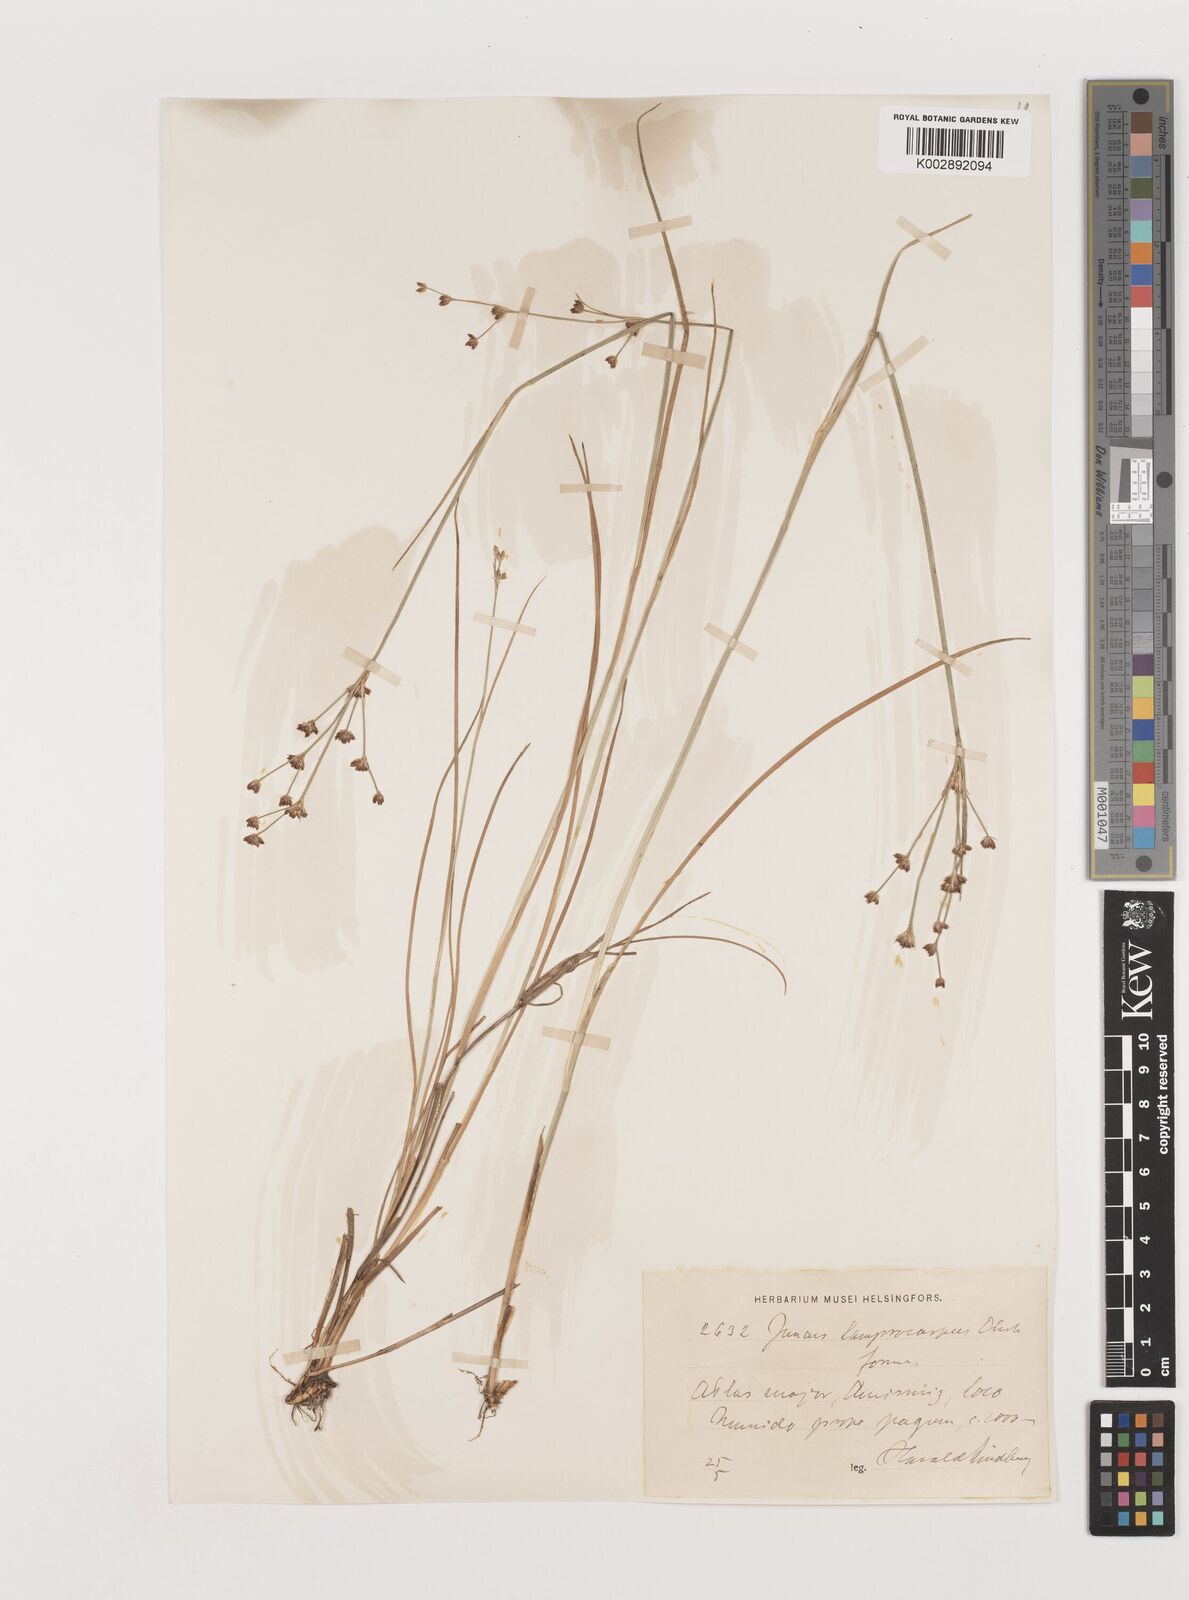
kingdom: Plantae
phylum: Tracheophyta
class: Liliopsida
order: Poales
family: Juncaceae
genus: Juncus
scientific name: Juncus articulatus
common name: Jointed rush
